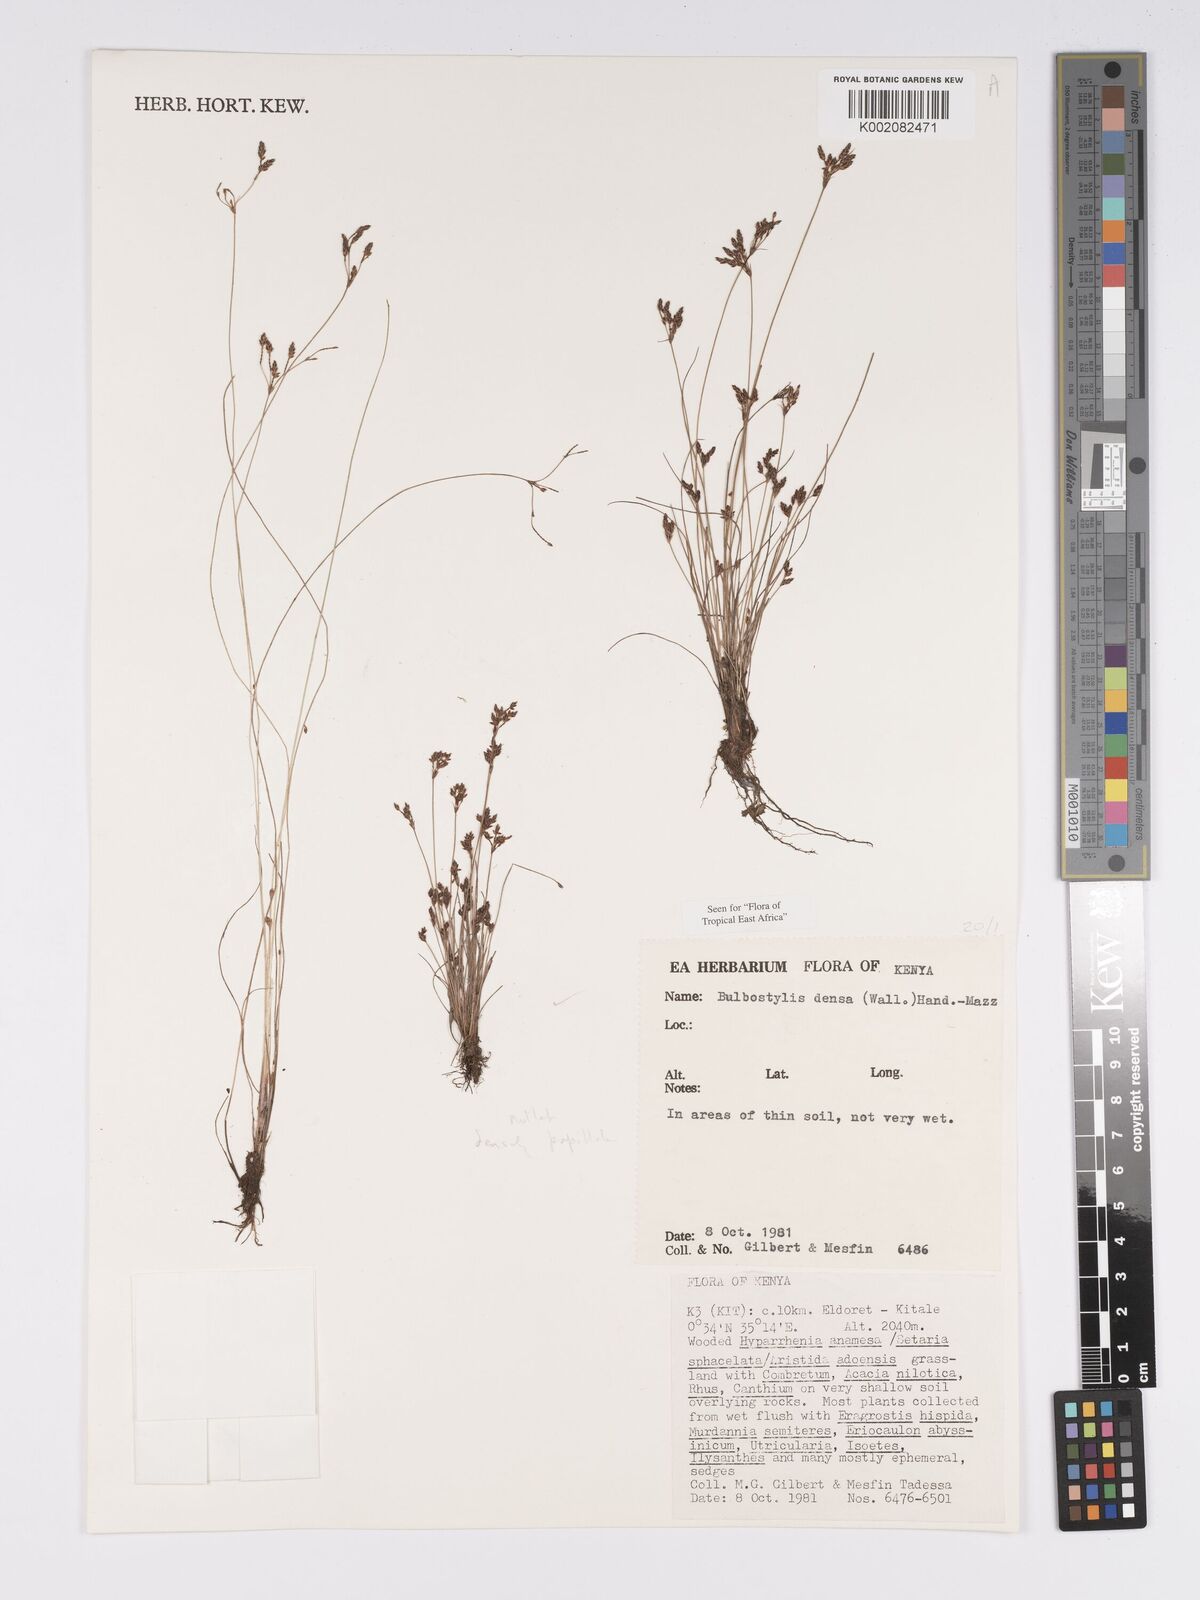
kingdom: Plantae
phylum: Tracheophyta
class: Liliopsida
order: Poales
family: Cyperaceae
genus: Bulbostylis
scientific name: Bulbostylis densa
